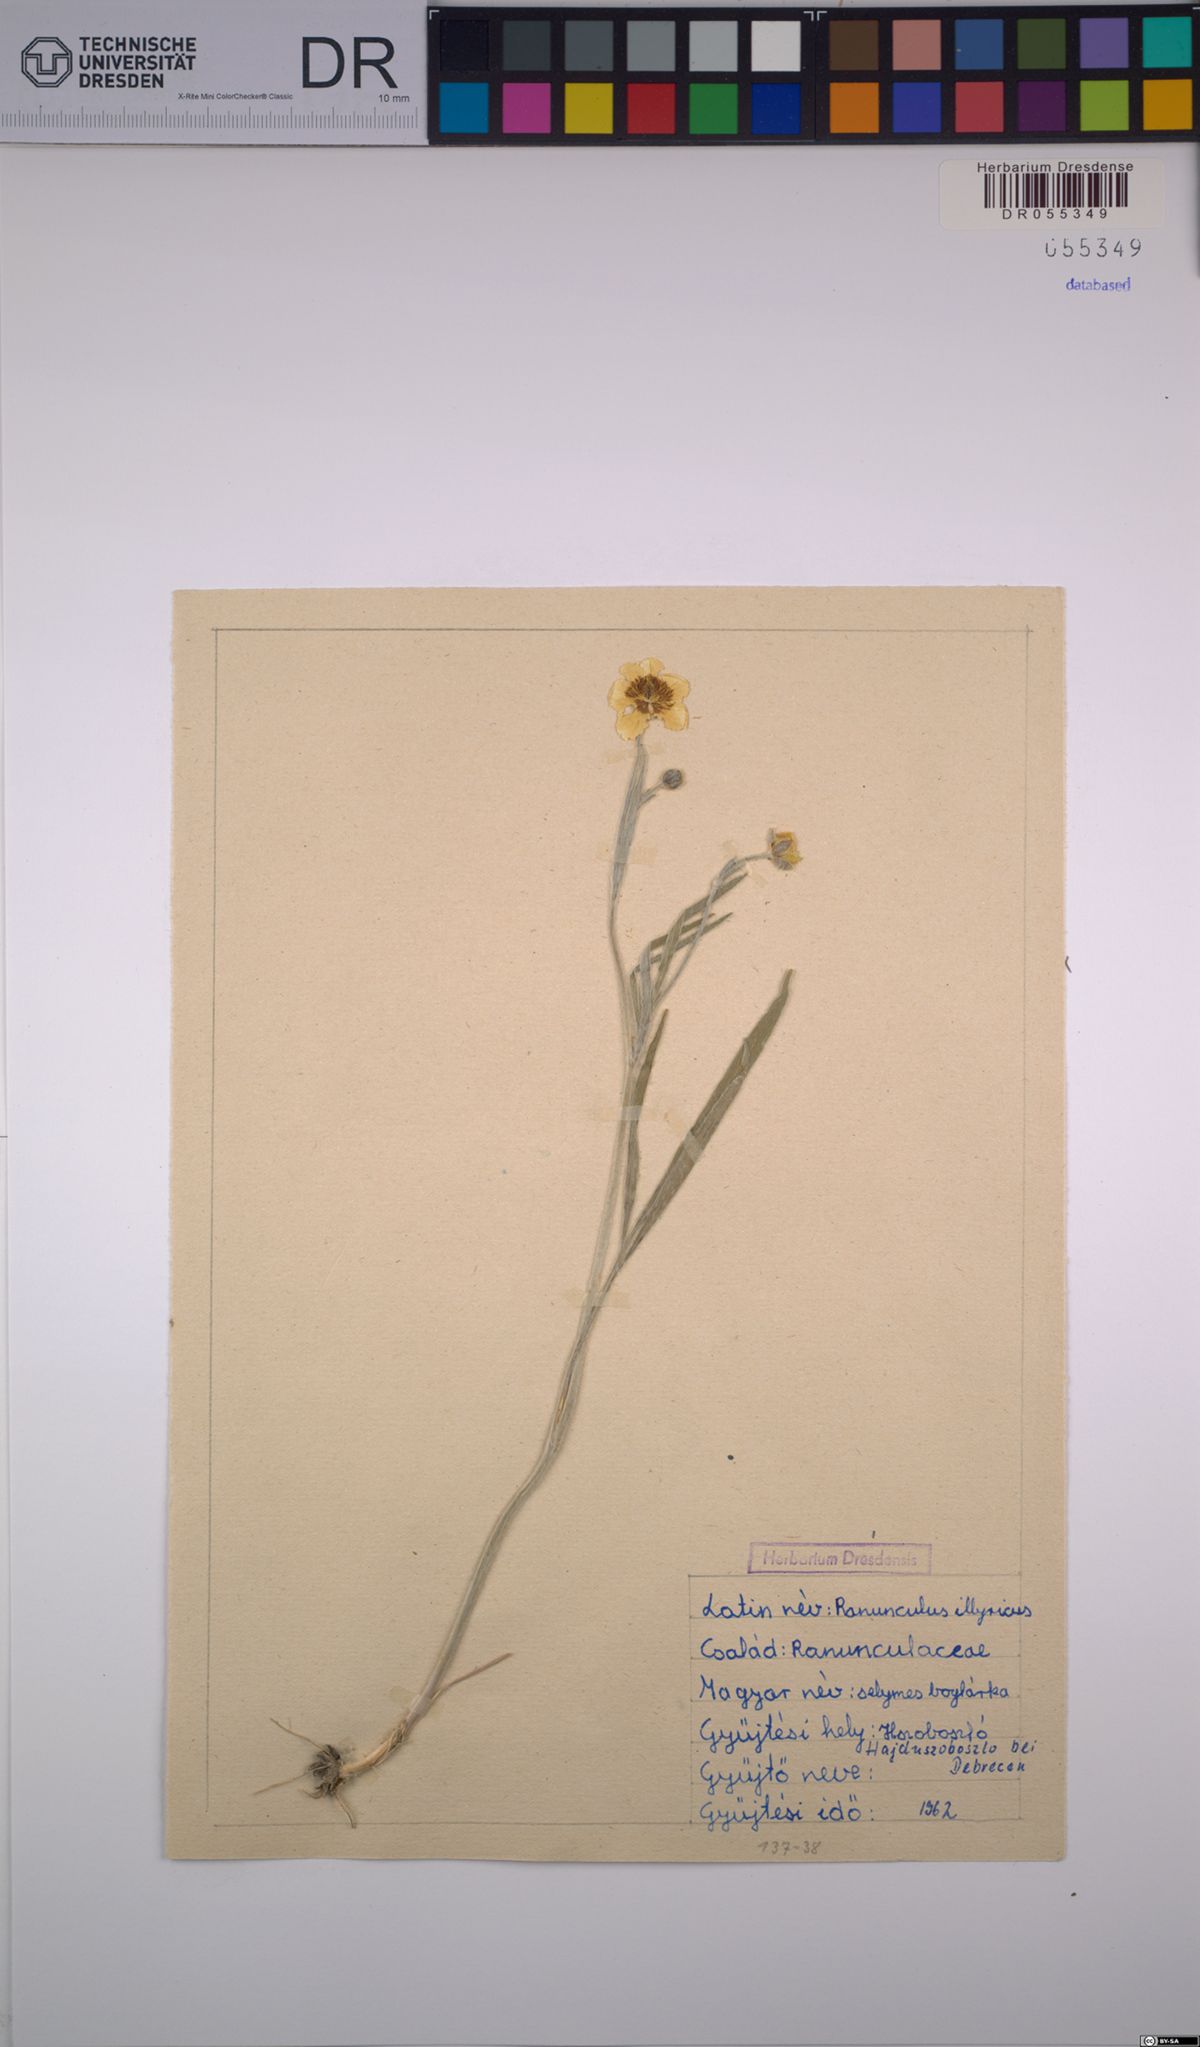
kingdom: Plantae
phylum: Tracheophyta
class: Magnoliopsida
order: Ranunculales
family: Ranunculaceae
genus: Ranunculus
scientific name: Ranunculus illyricus
